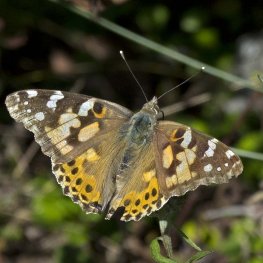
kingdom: Animalia
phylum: Arthropoda
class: Insecta
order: Lepidoptera
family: Nymphalidae
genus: Vanessa
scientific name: Vanessa cardui
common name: Painted Lady
